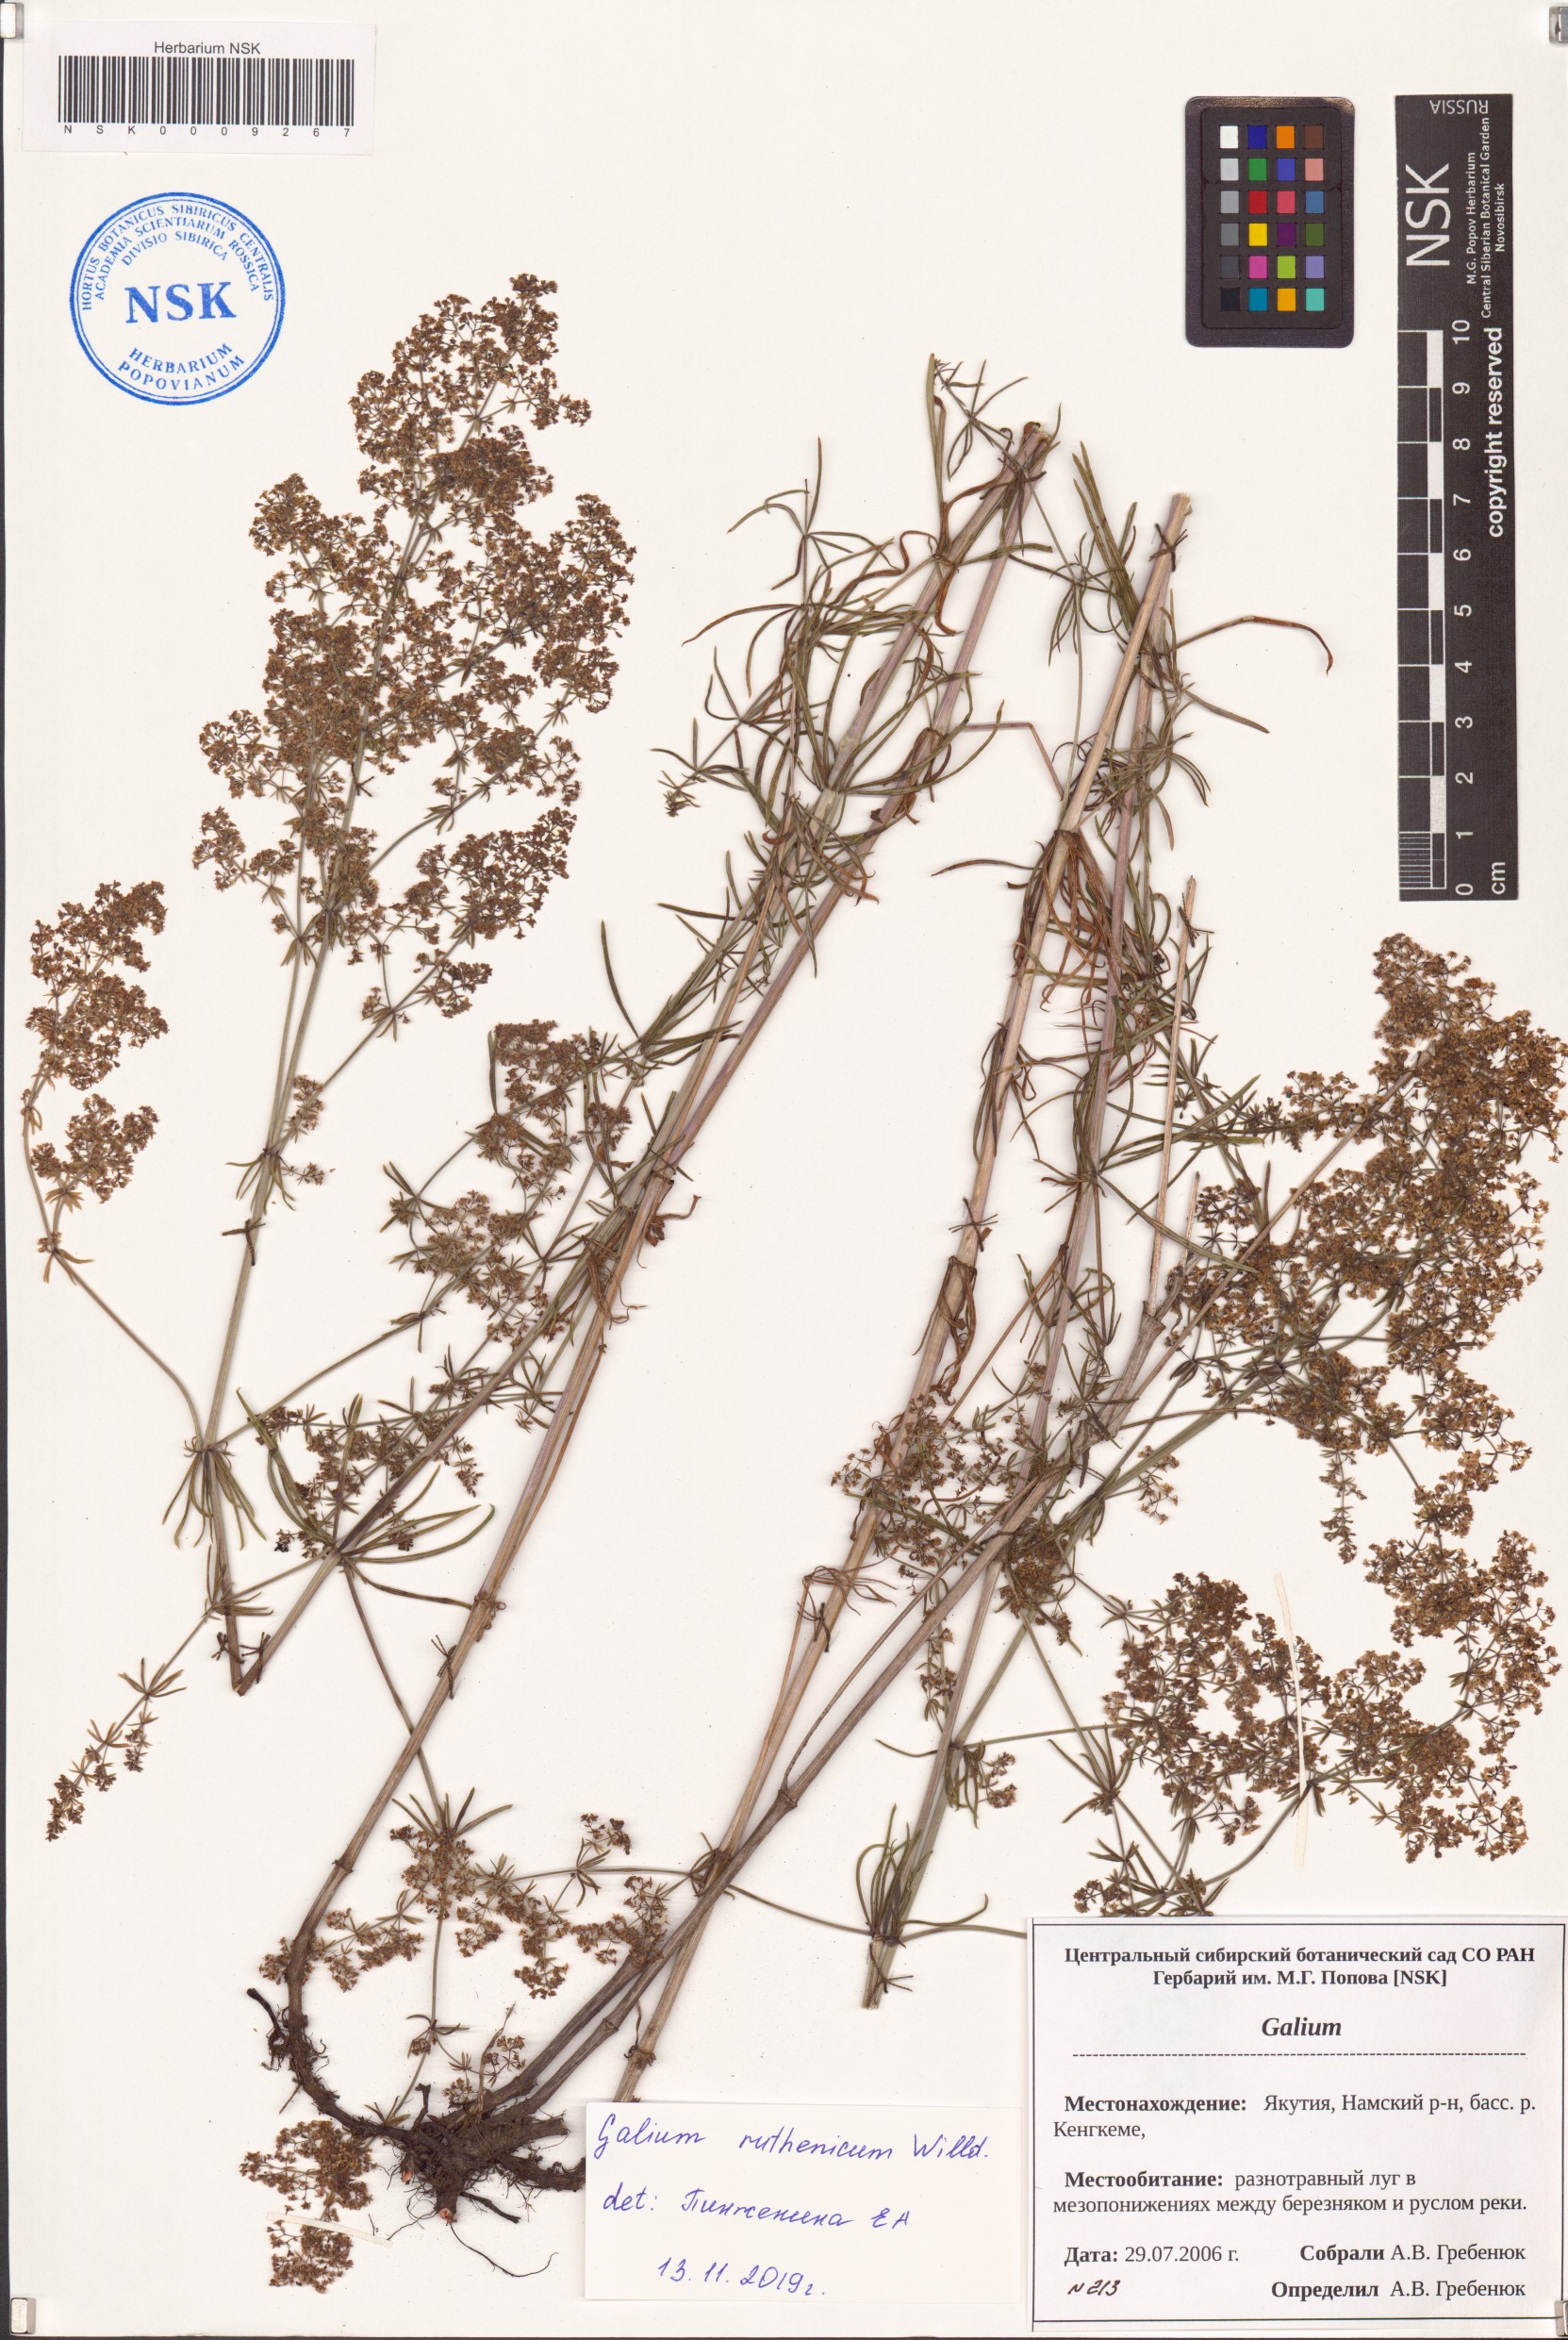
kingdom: Plantae
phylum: Tracheophyta
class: Magnoliopsida
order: Gentianales
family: Rubiaceae
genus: Galium
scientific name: Galium verum
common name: Lady's bedstraw
